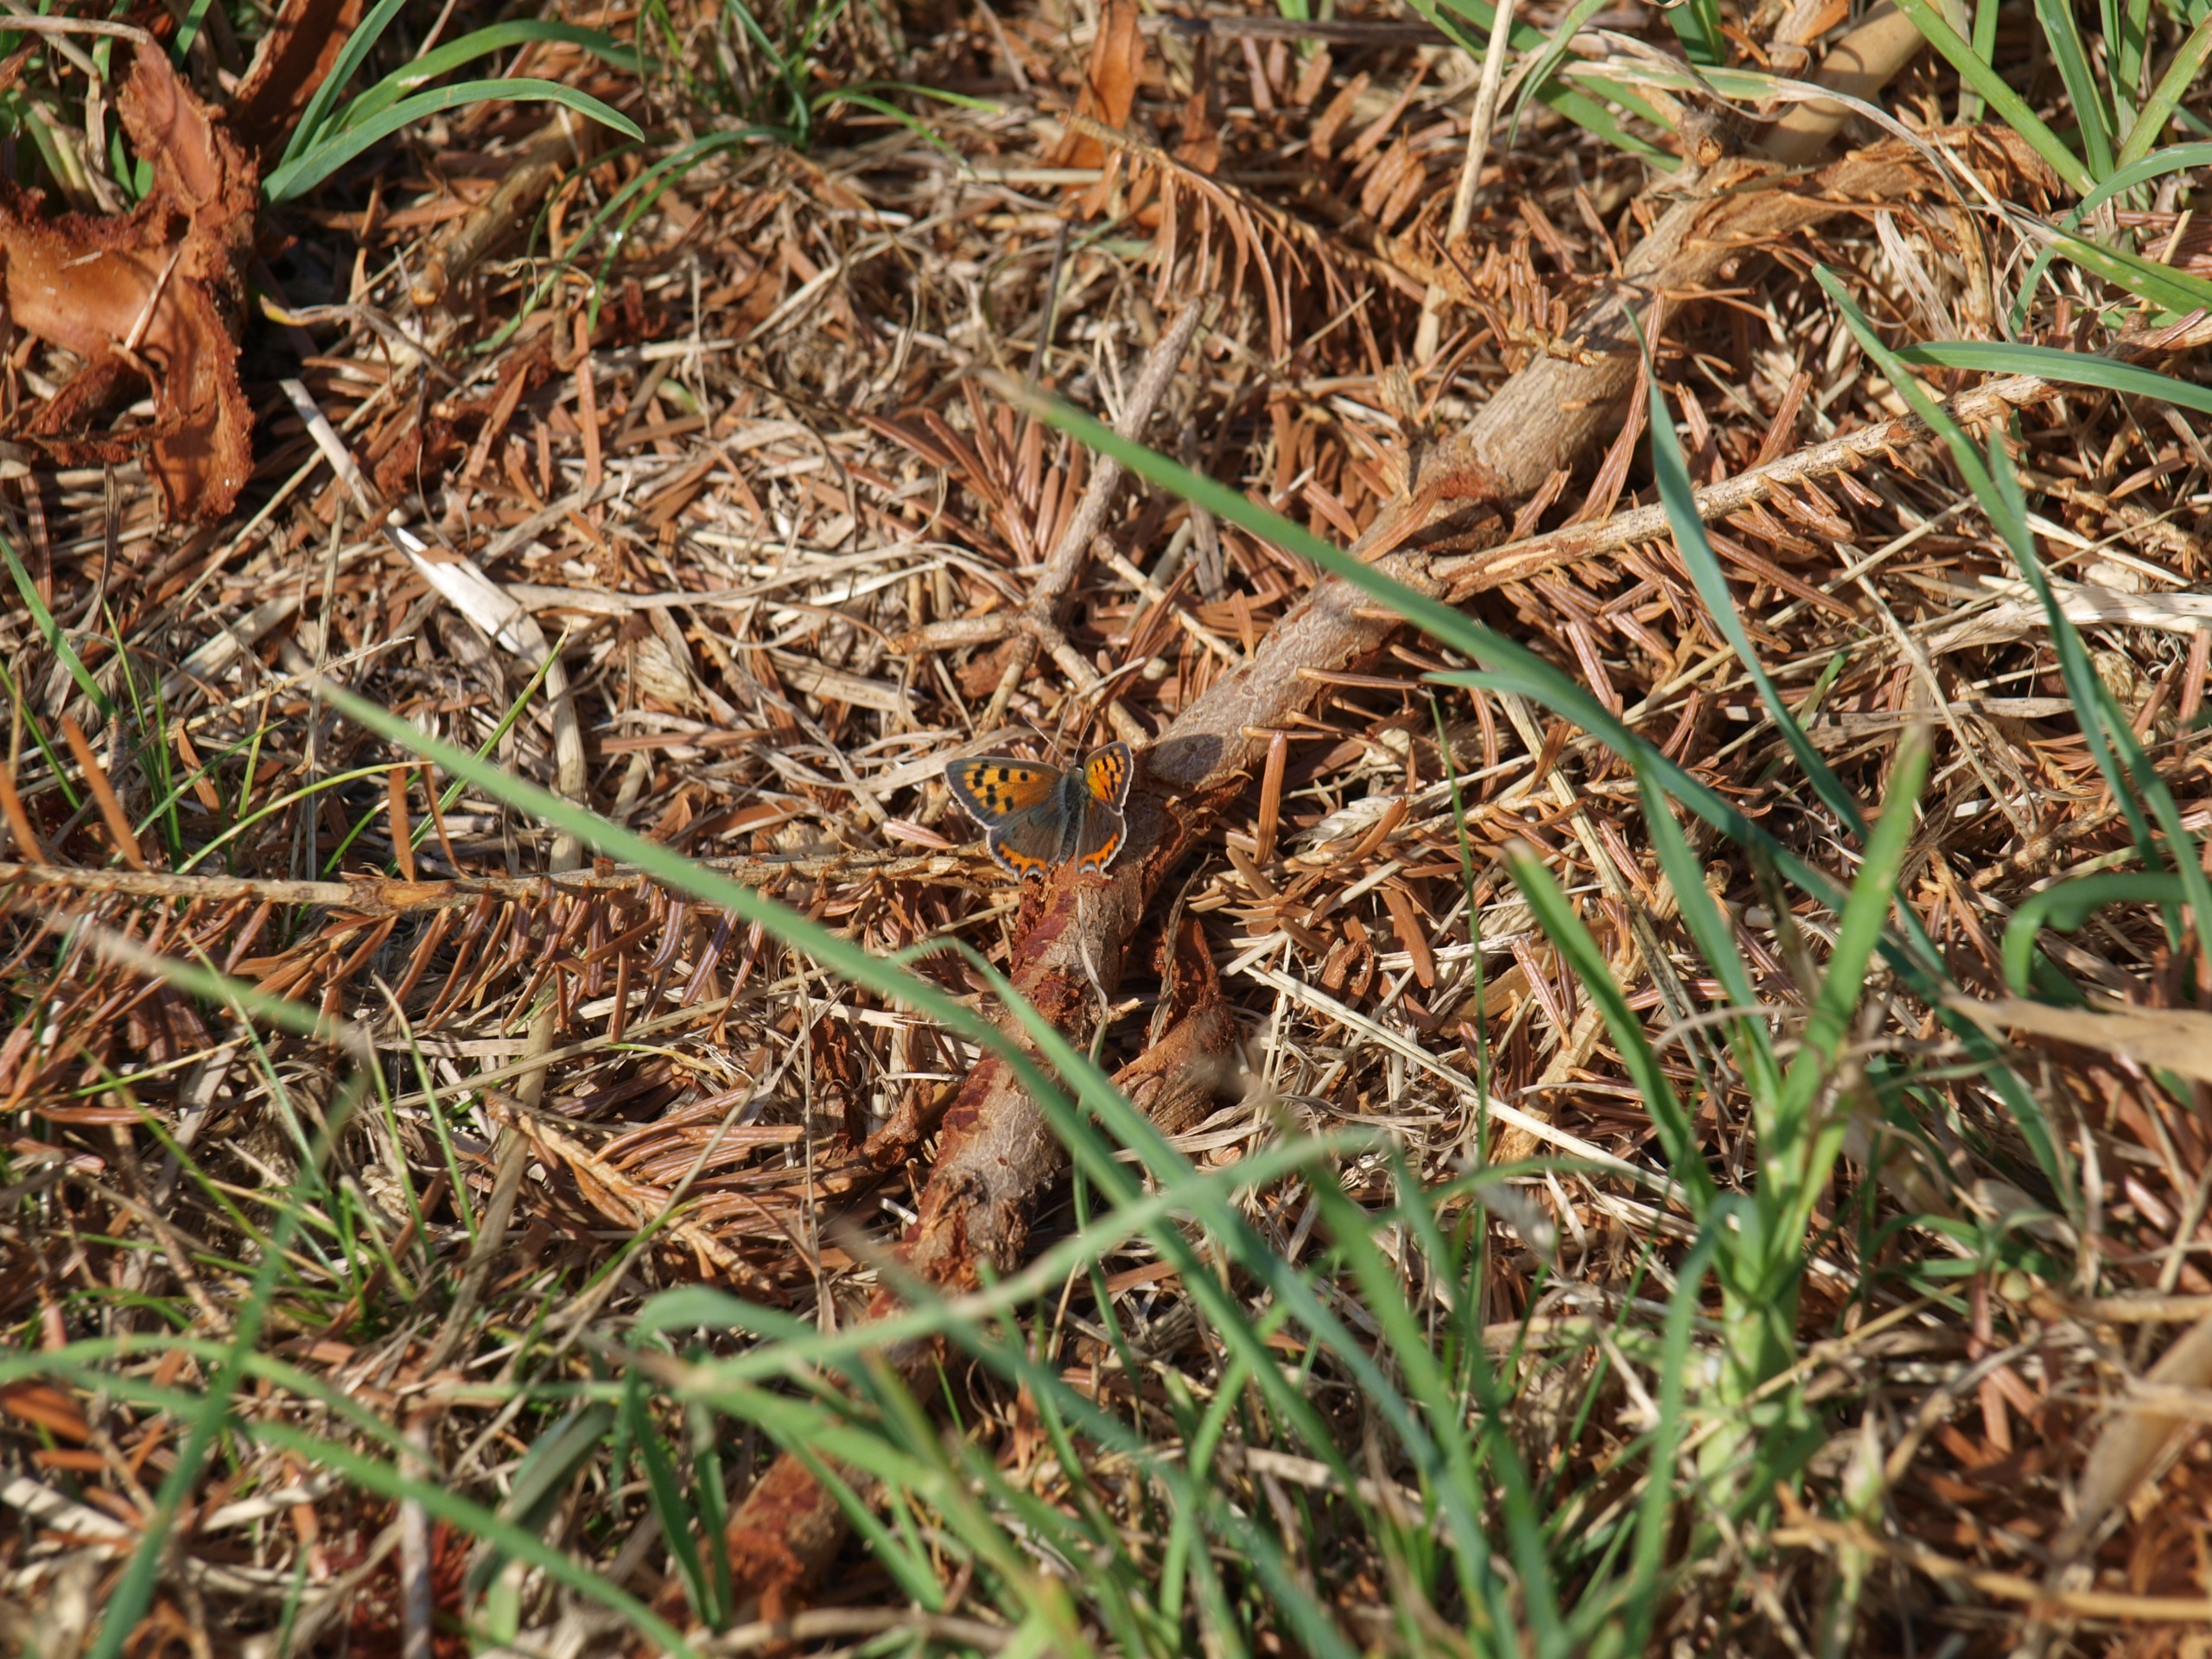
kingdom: Animalia
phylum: Arthropoda
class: Insecta
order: Lepidoptera
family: Lycaenidae
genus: Lycaena
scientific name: Lycaena phlaeas
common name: Lille ildfugl
